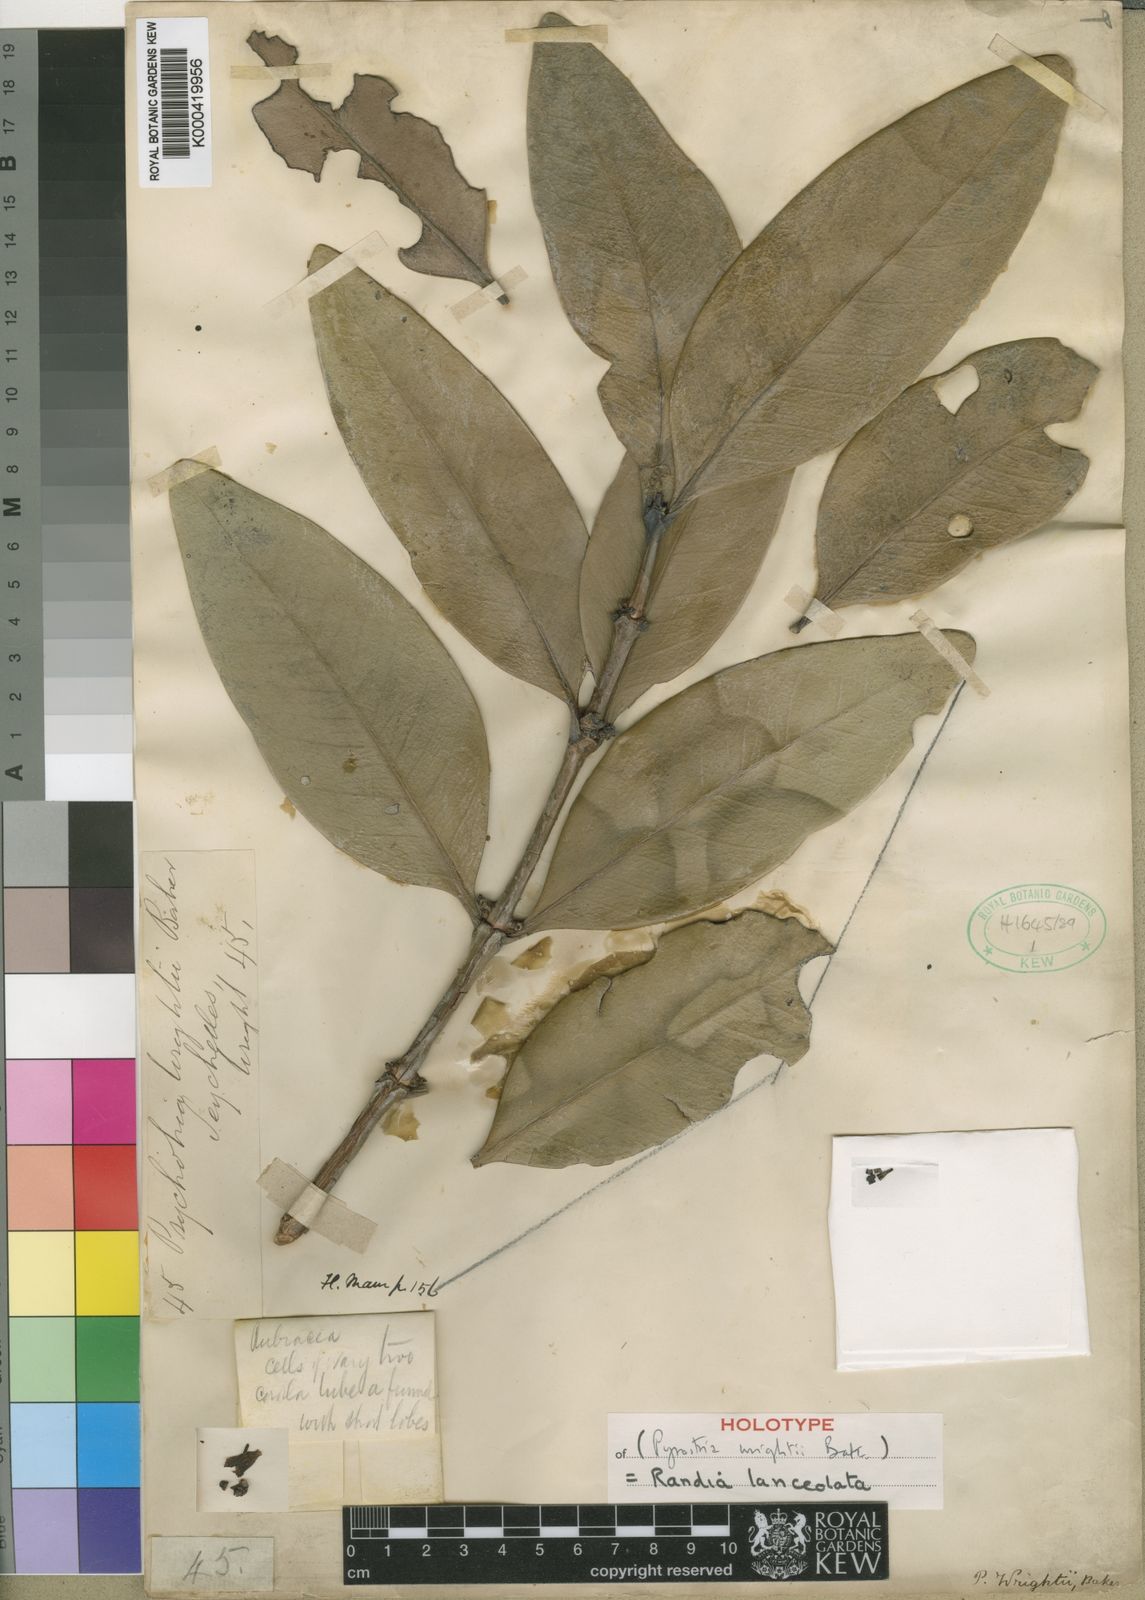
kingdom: Plantae
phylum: Tracheophyta
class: Magnoliopsida
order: Gentianales
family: Rubiaceae
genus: Paragenipa
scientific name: Paragenipa lancifolia
